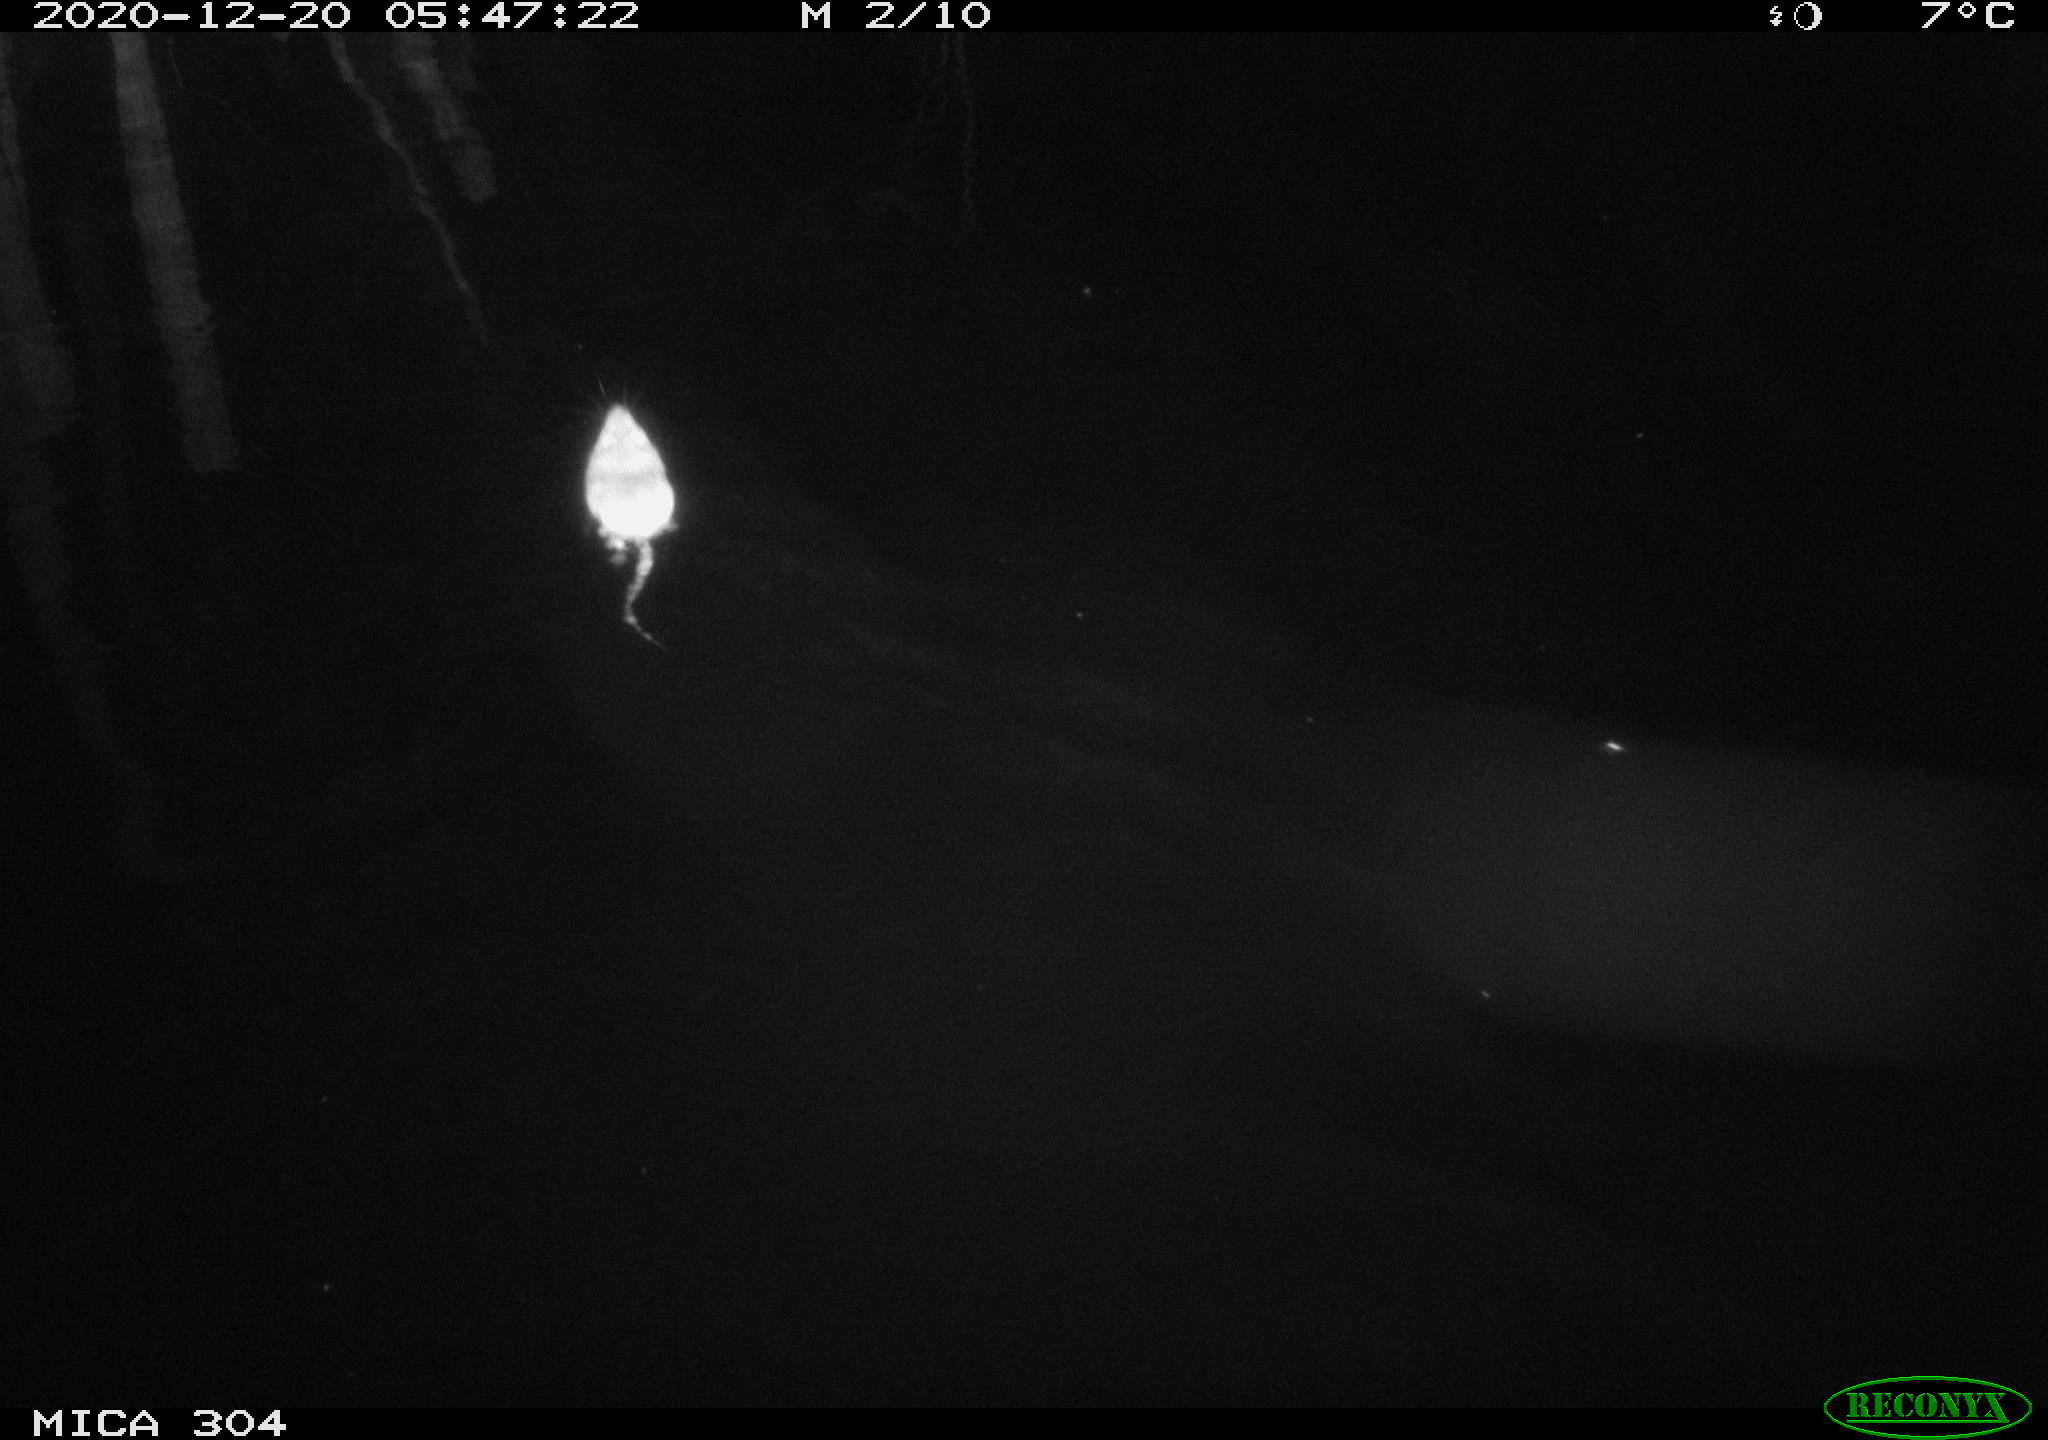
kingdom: Animalia
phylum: Chordata
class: Mammalia
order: Rodentia
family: Cricetidae
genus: Ondatra
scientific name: Ondatra zibethicus
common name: Muskrat
